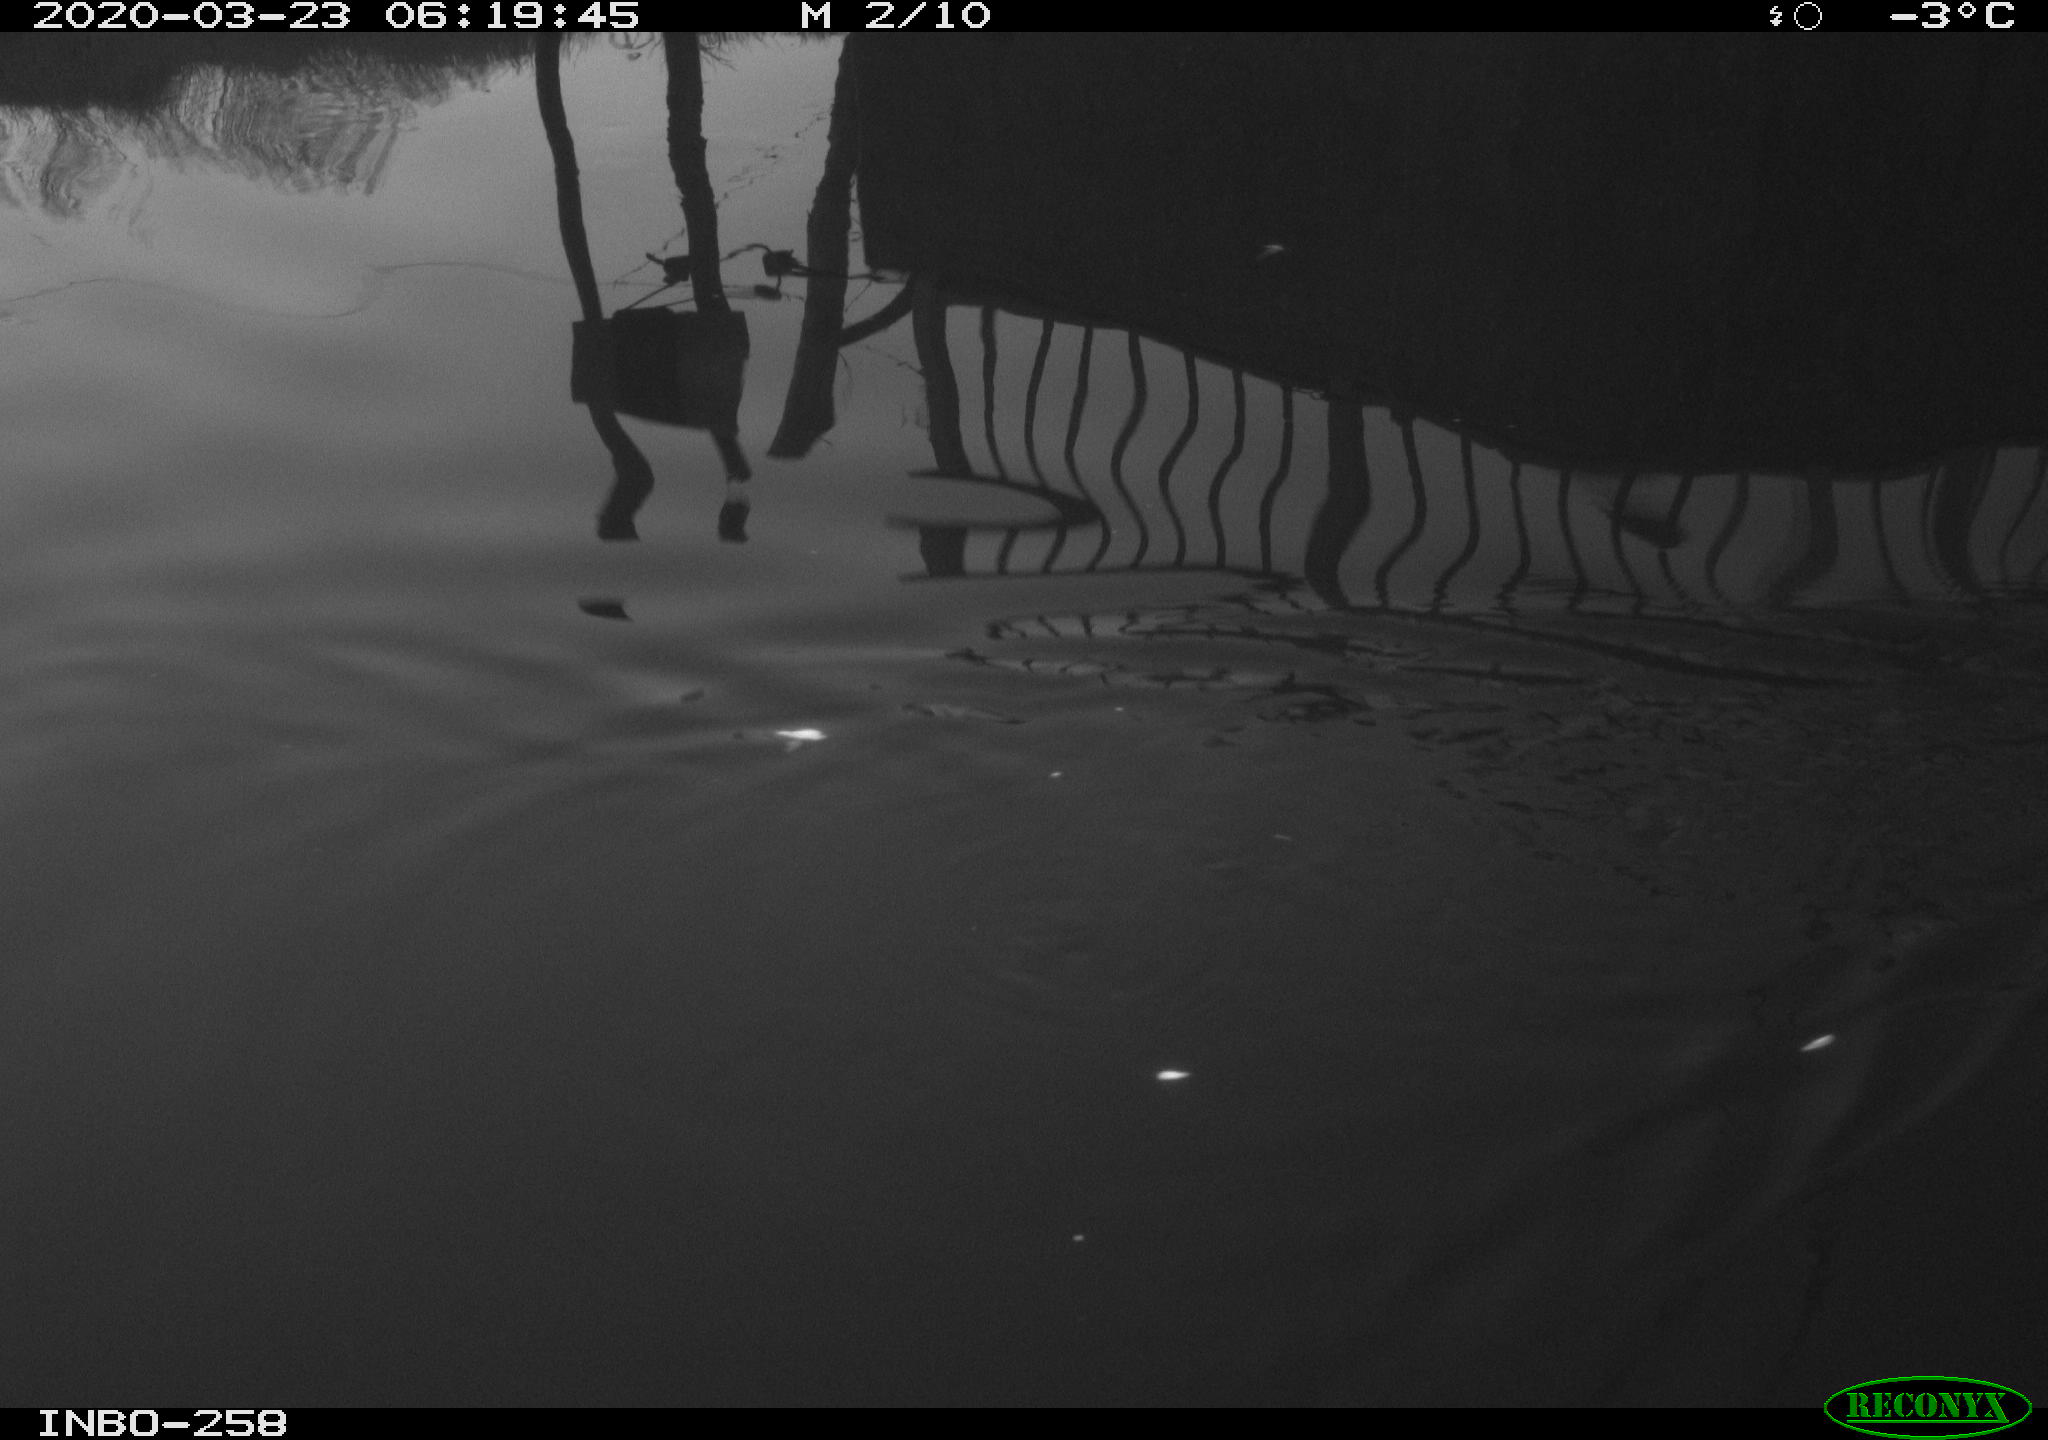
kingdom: Animalia
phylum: Chordata
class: Aves
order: Anseriformes
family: Anatidae
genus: Anas
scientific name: Anas platyrhynchos
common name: Mallard
